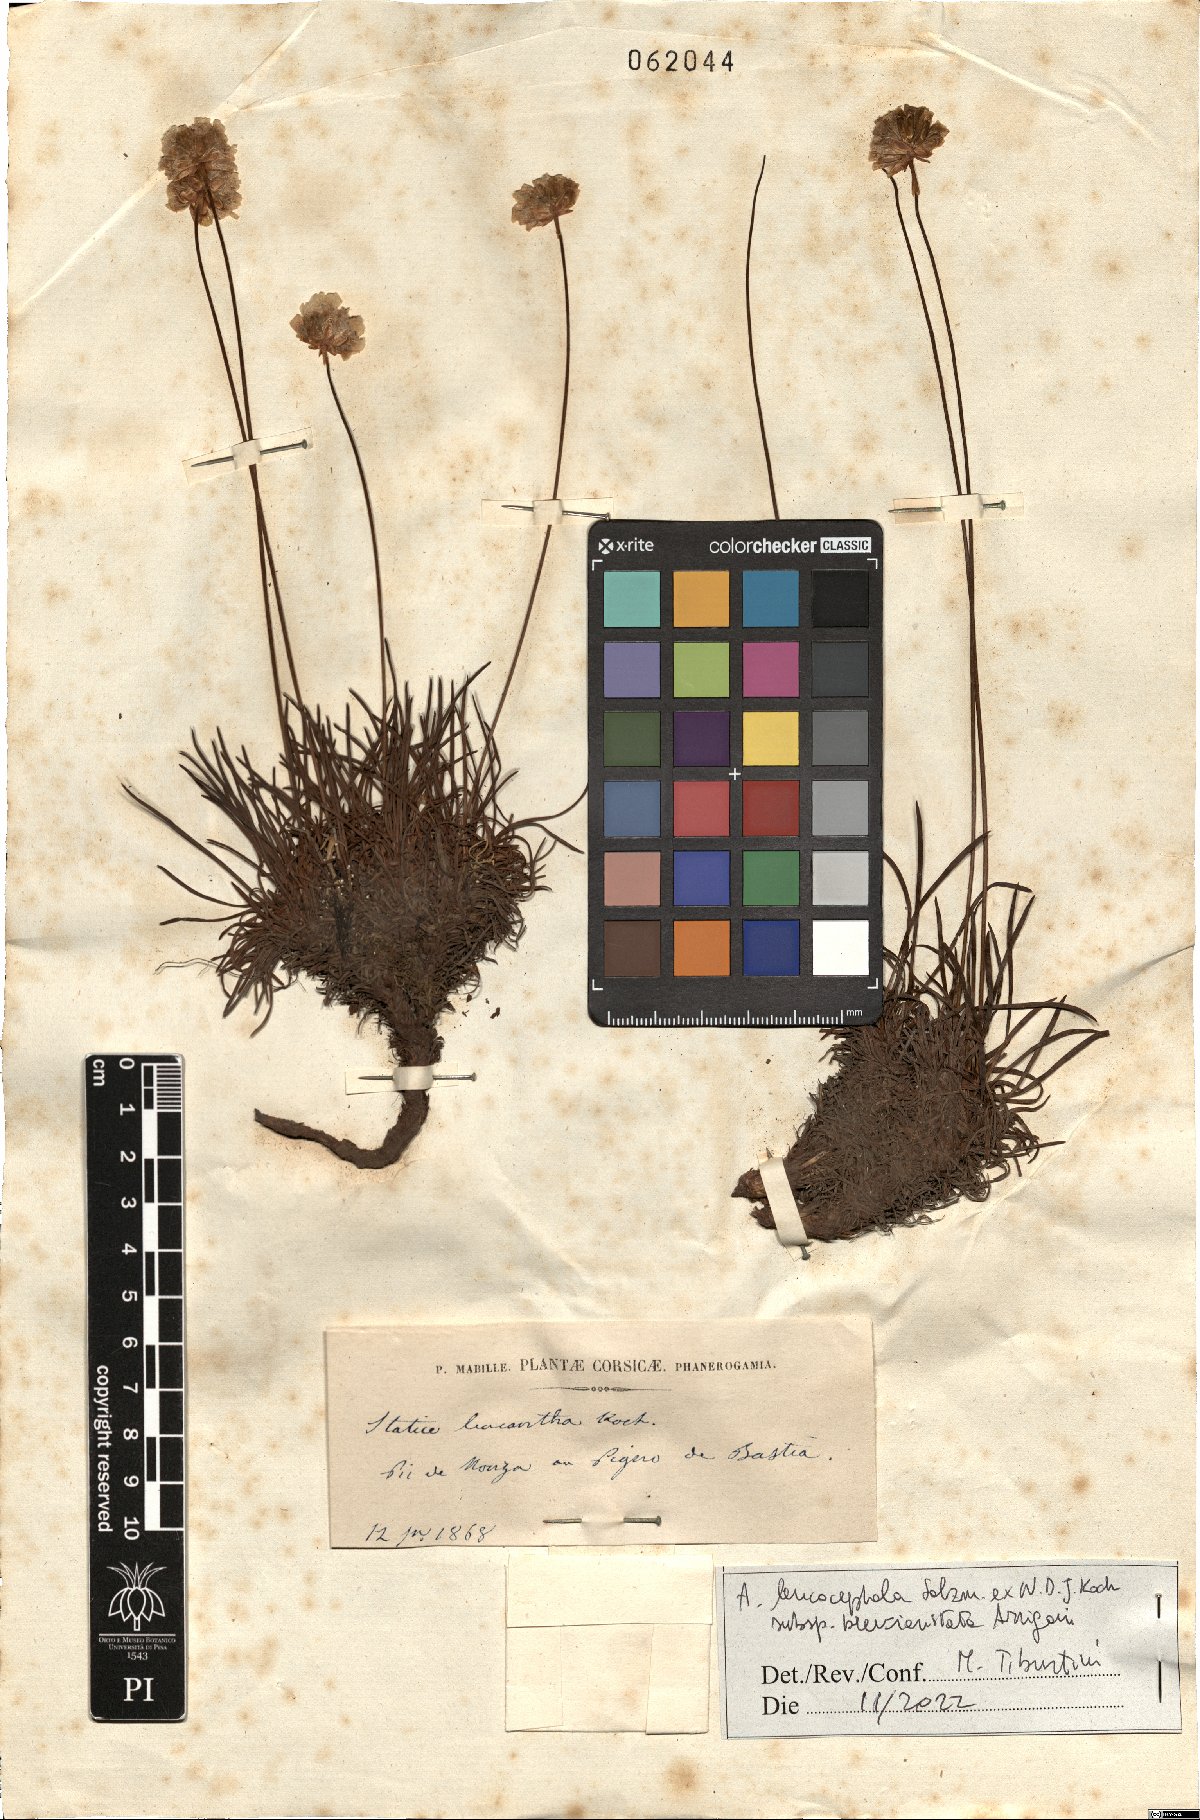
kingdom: Plantae
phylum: Tracheophyta
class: Magnoliopsida
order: Caryophyllales
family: Plumbaginaceae
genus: Armeria
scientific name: Armeria leucocephala
